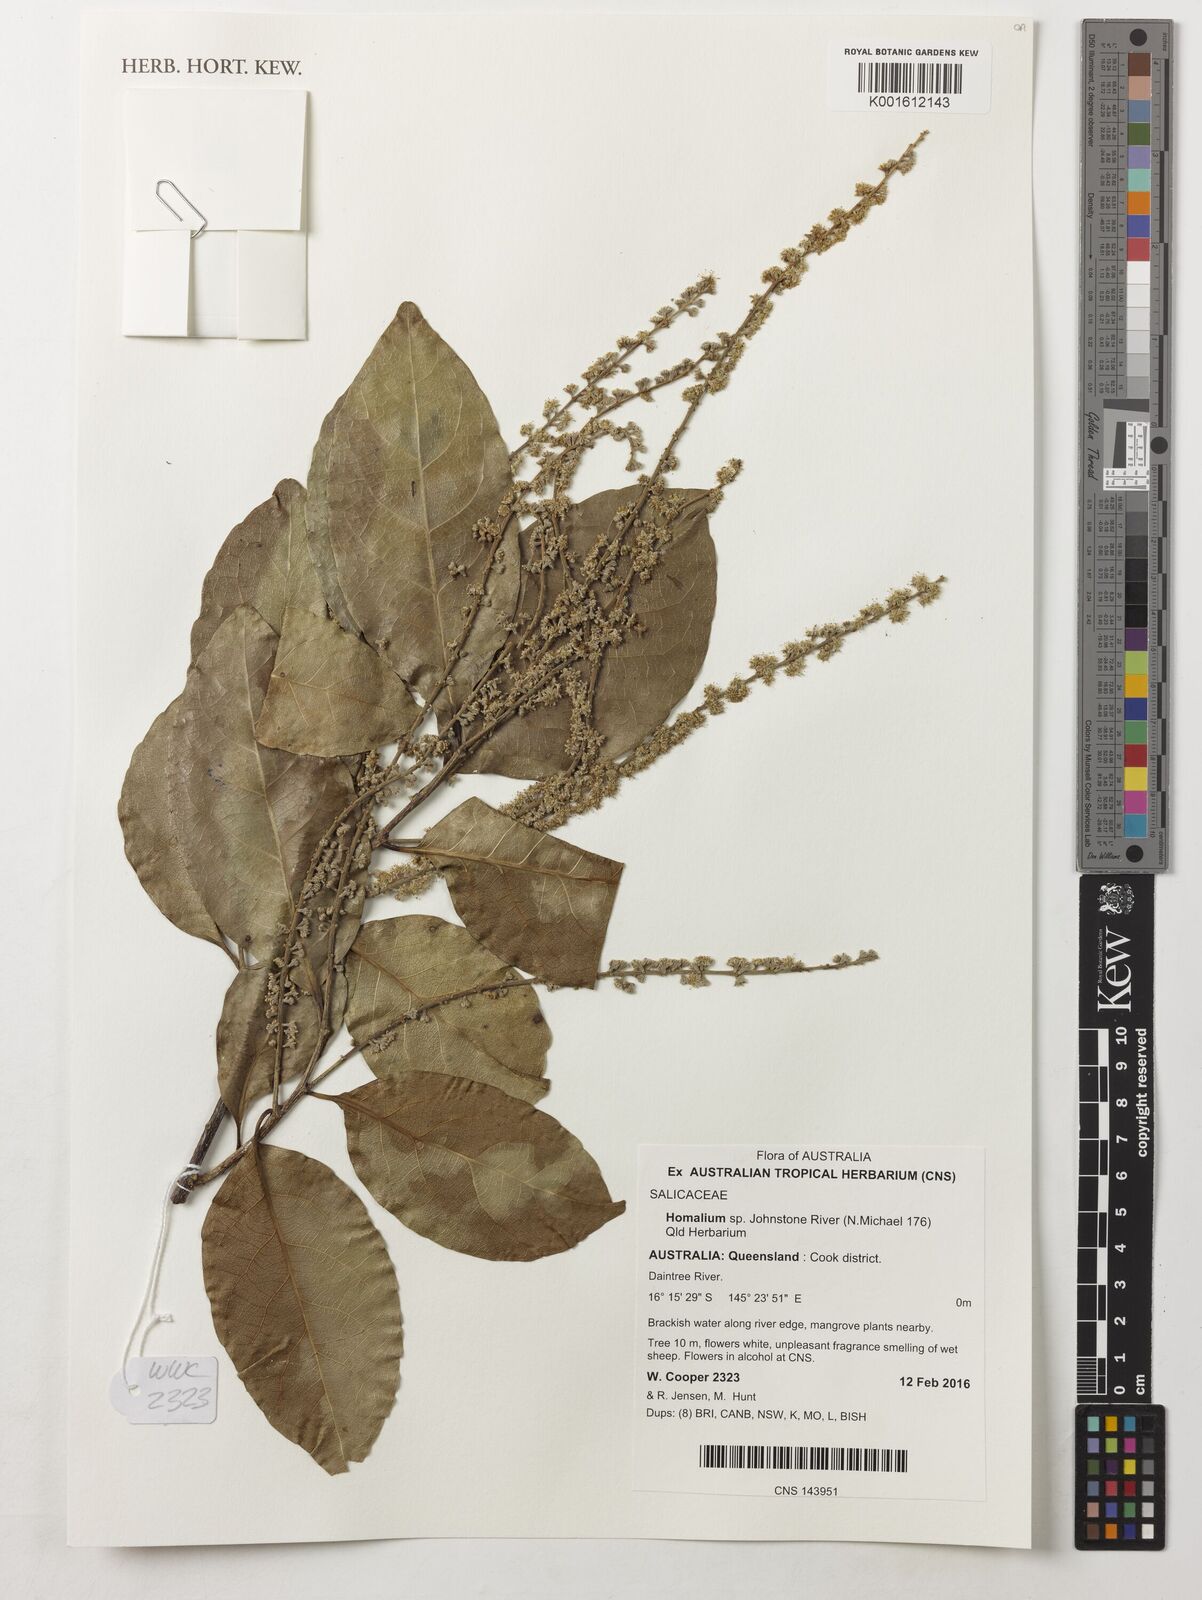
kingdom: Plantae
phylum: Tracheophyta
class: Magnoliopsida
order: Malpighiales
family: Salicaceae
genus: Homalium
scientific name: Homalium
